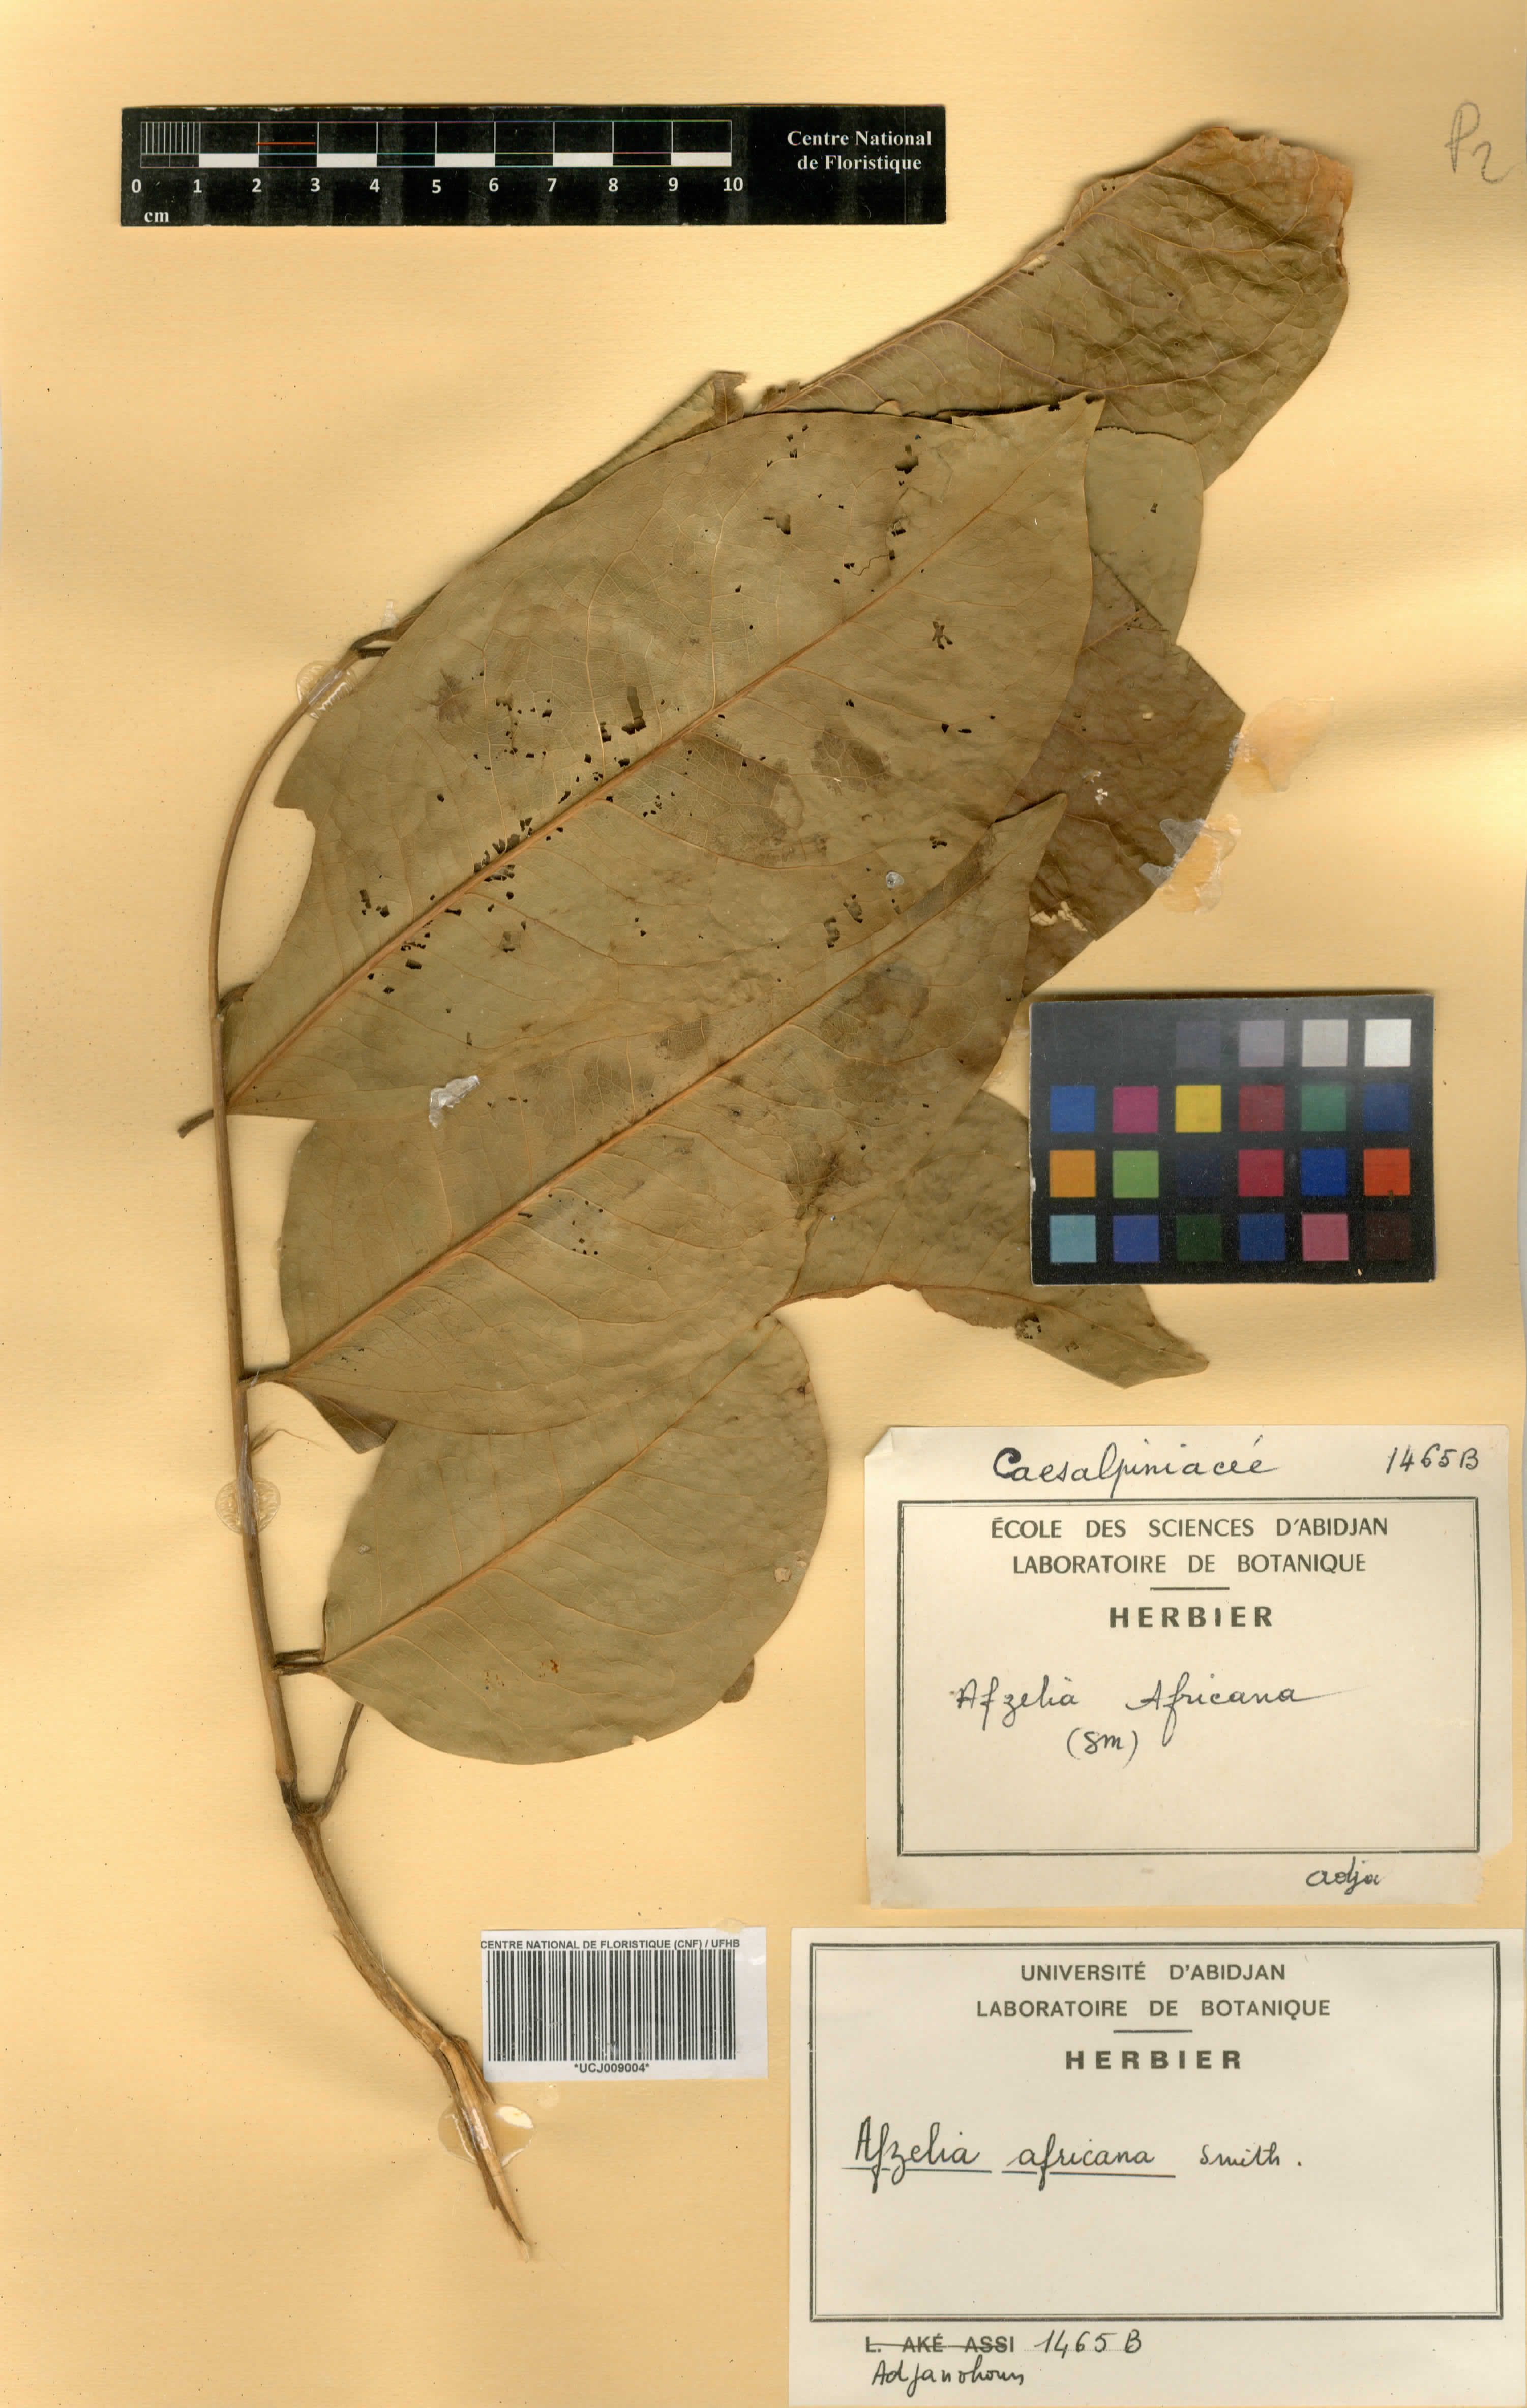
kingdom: Plantae
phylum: Tracheophyta
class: Magnoliopsida
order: Fabales
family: Fabaceae
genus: Afzelia
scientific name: Afzelia africana
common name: African-mahogany
